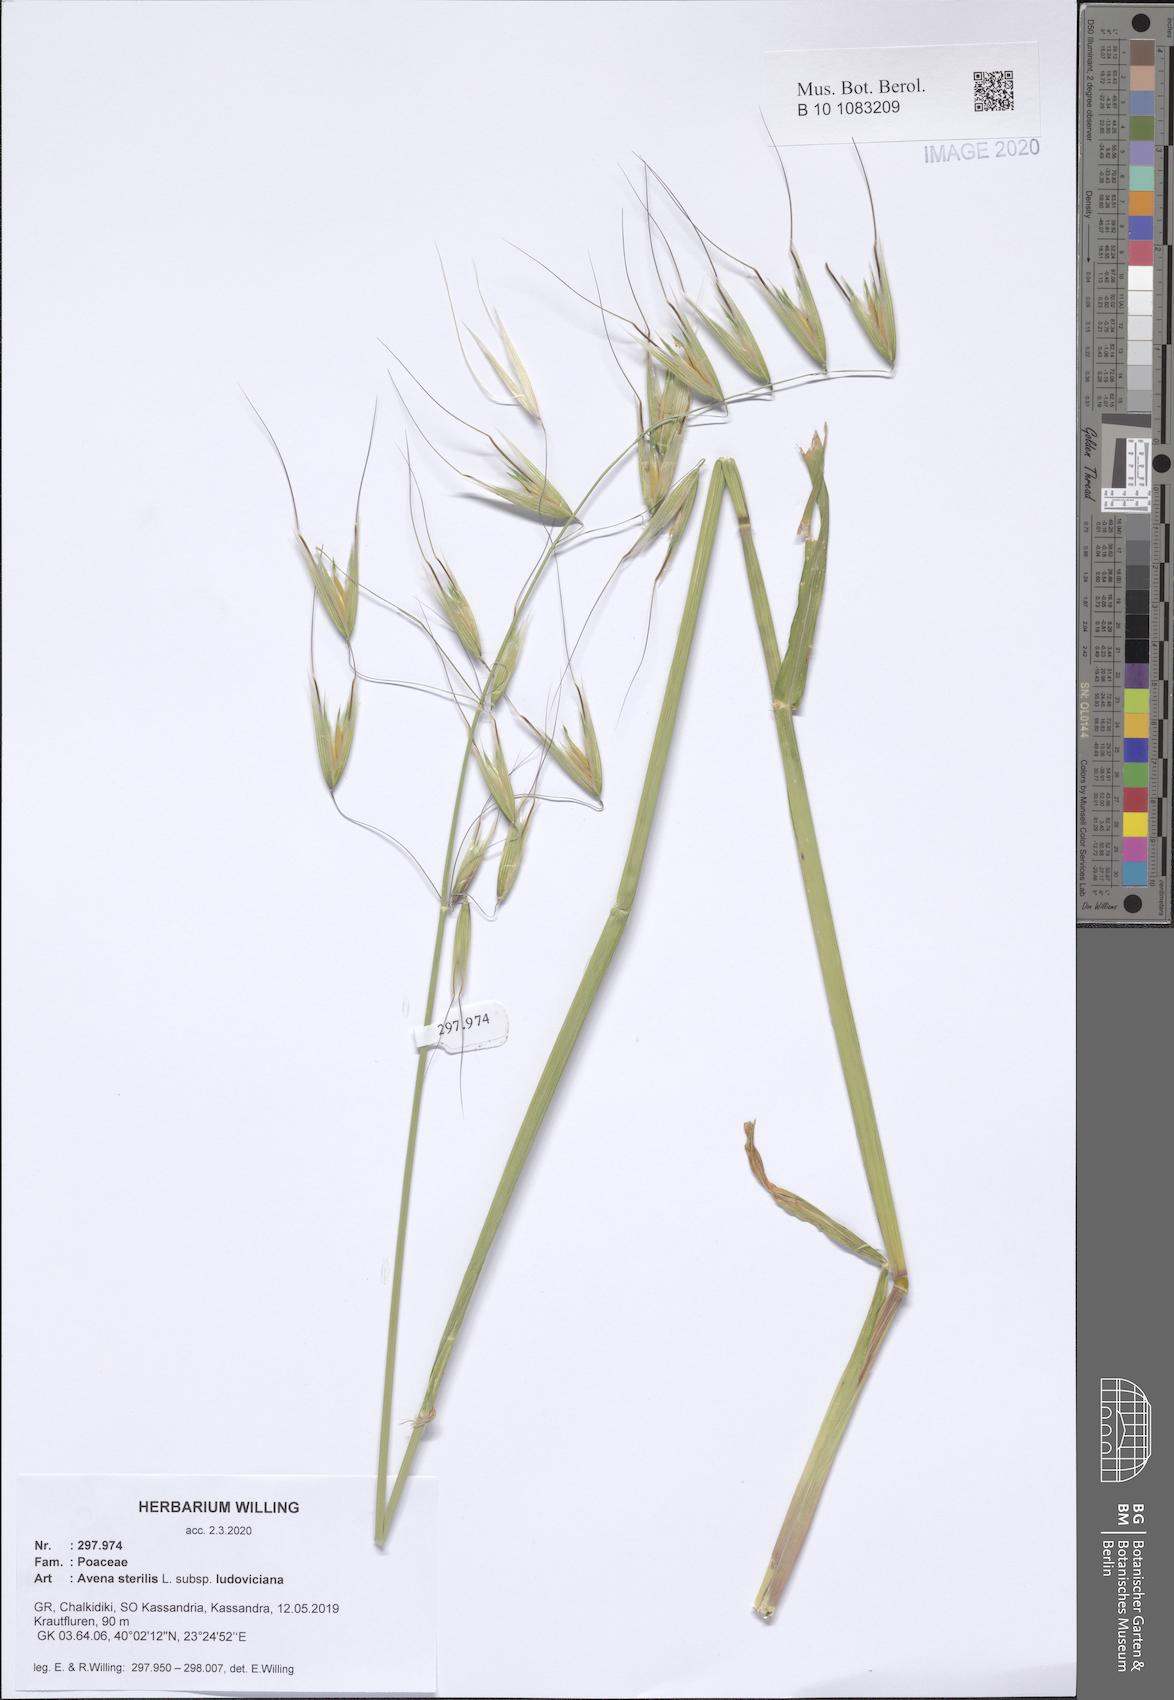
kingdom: Plantae
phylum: Tracheophyta
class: Liliopsida
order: Poales
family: Poaceae
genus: Avena
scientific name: Avena sterilis
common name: Animated oat
